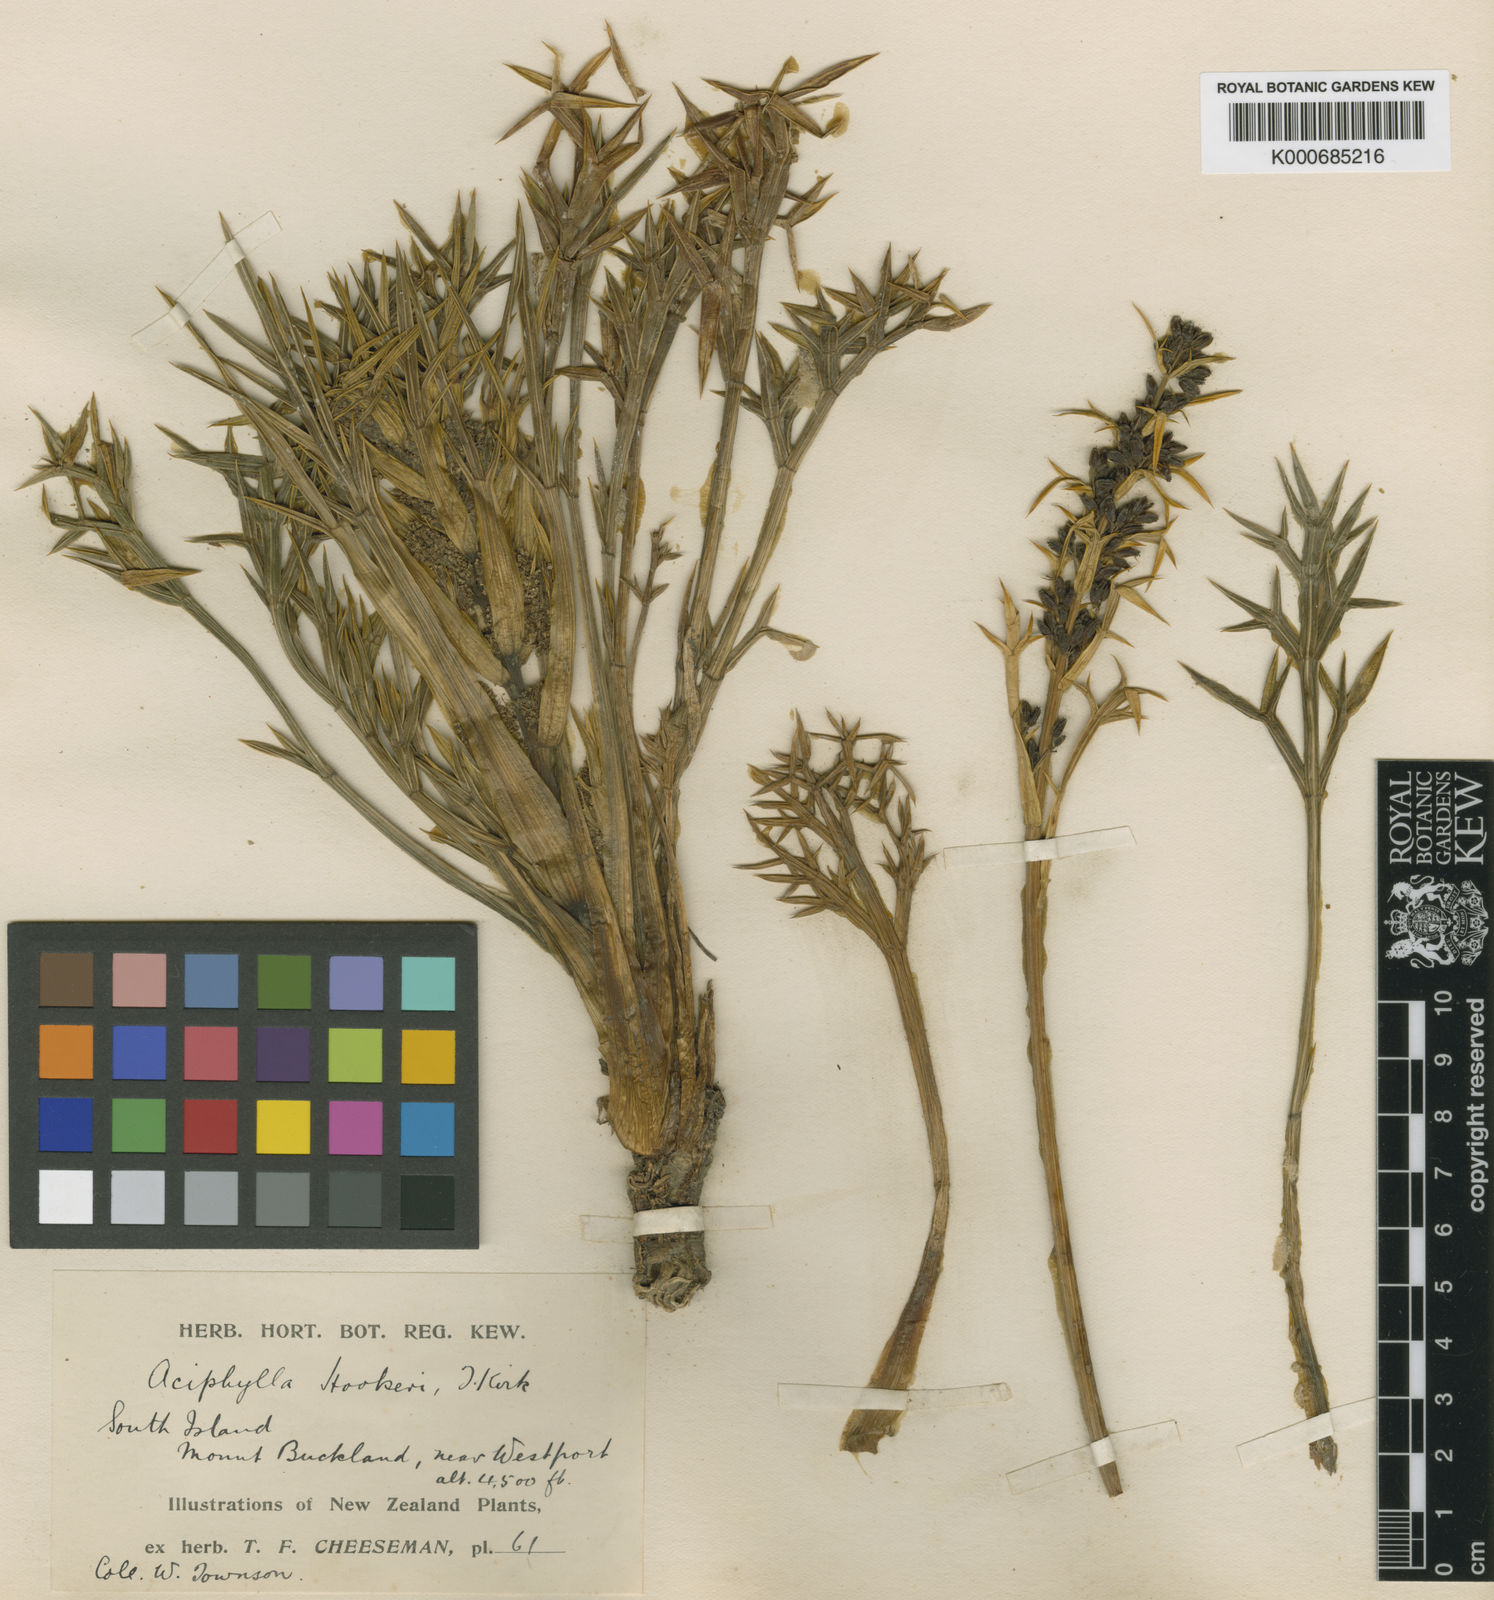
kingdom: Plantae
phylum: Tracheophyta
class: Magnoliopsida
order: Apiales
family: Apiaceae
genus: Aciphylla
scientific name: Aciphylla hookeri
